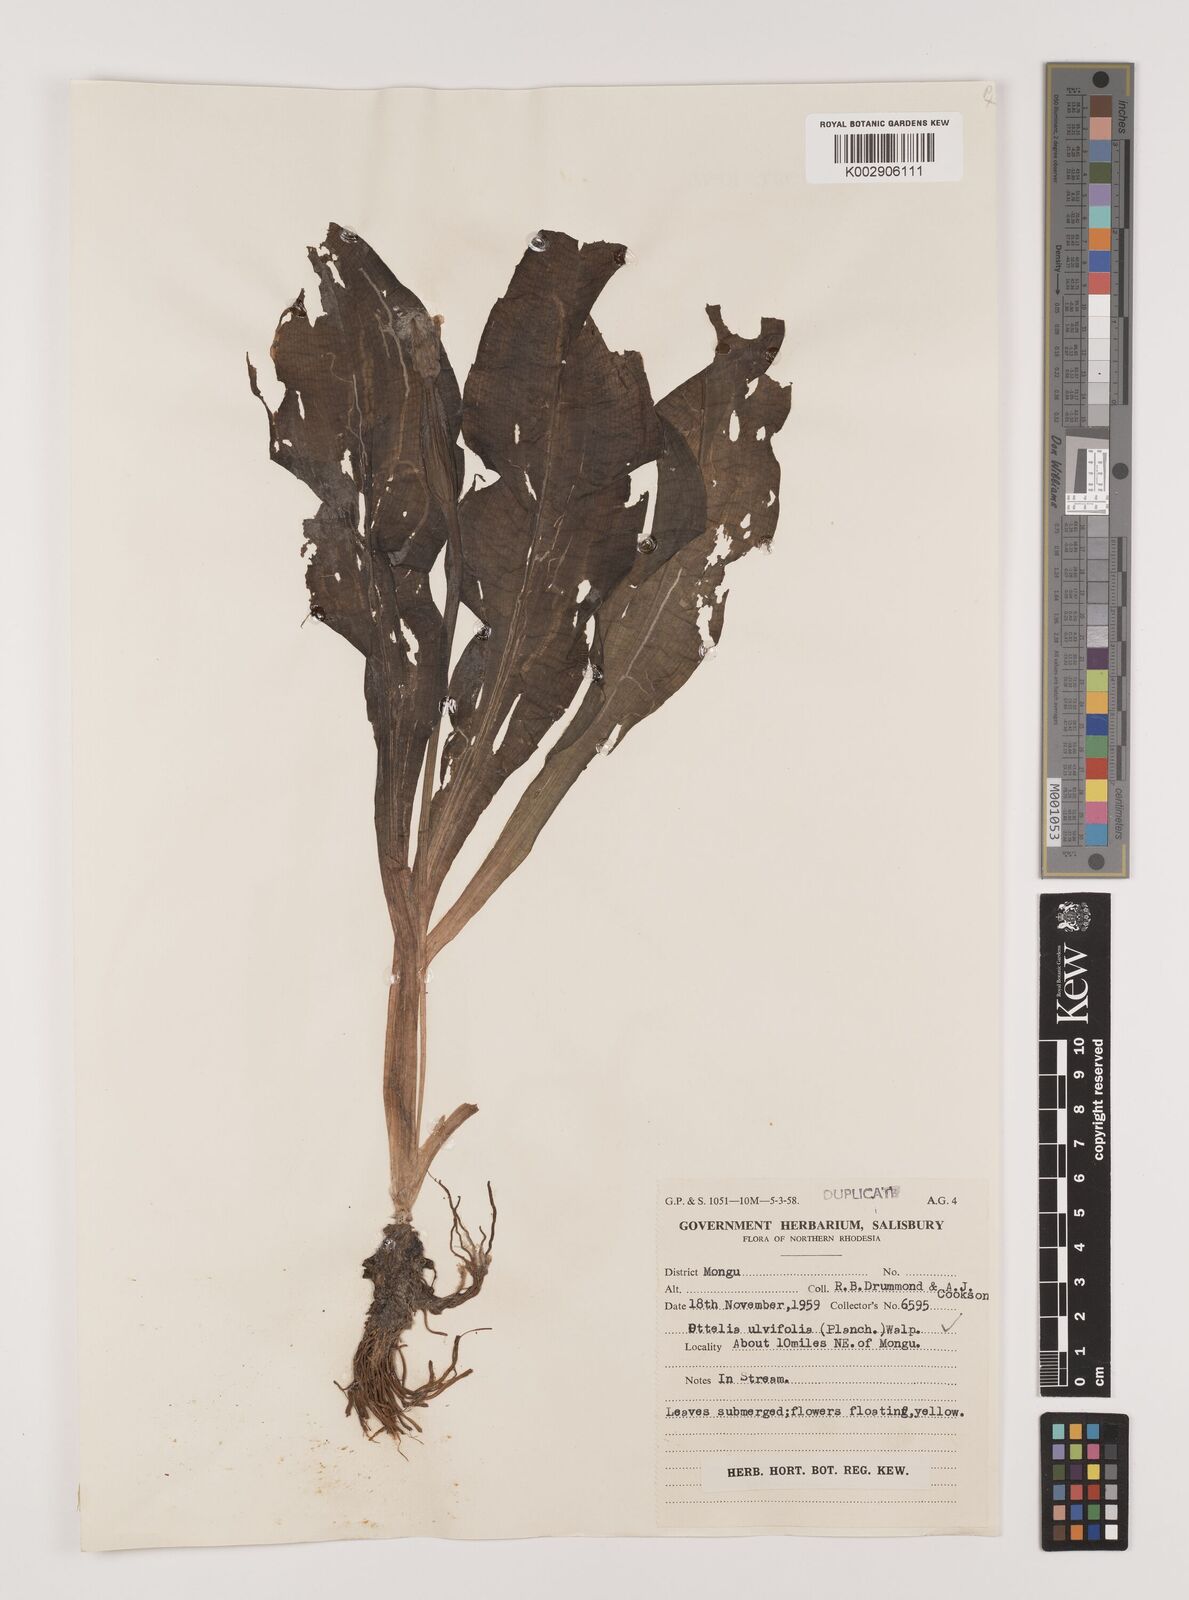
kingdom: Plantae
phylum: Tracheophyta
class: Liliopsida
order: Alismatales
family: Hydrocharitaceae
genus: Ottelia
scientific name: Ottelia ulvifolia
